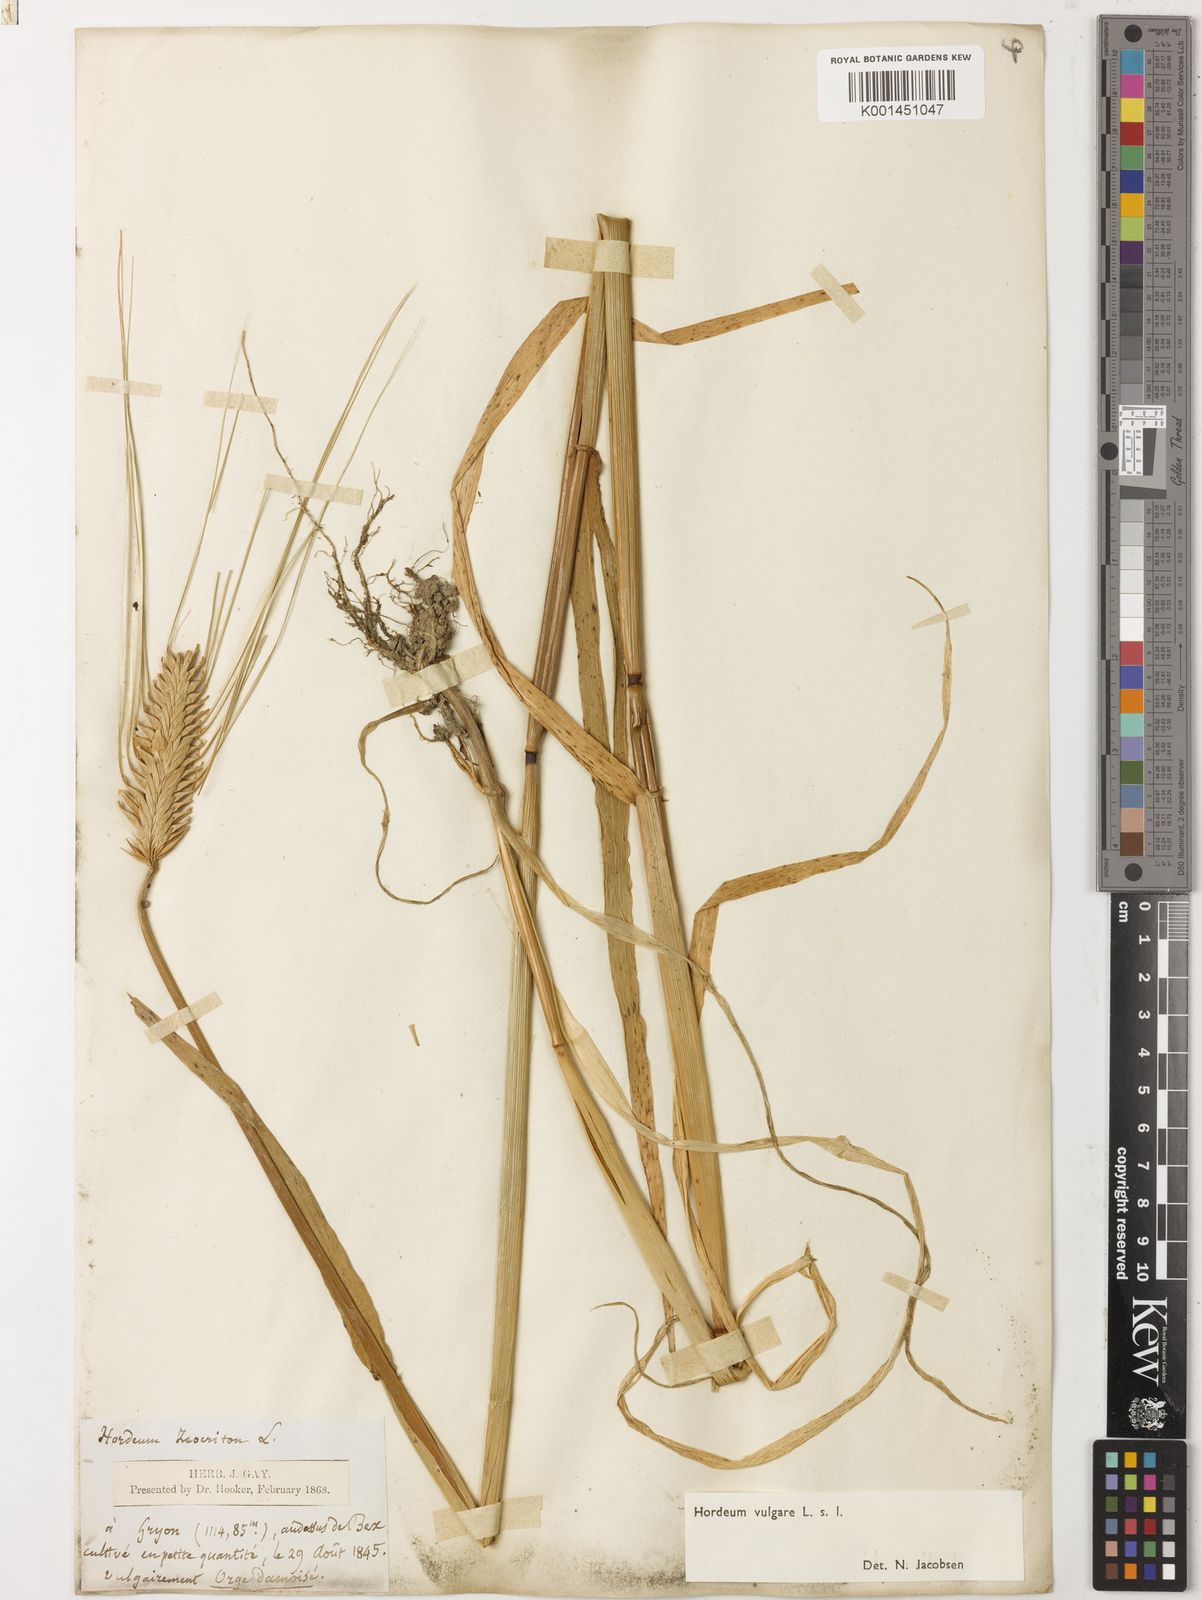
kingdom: Plantae
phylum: Tracheophyta
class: Liliopsida
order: Poales
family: Poaceae
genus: Hordeum
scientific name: Hordeum vulgare
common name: Common barley
